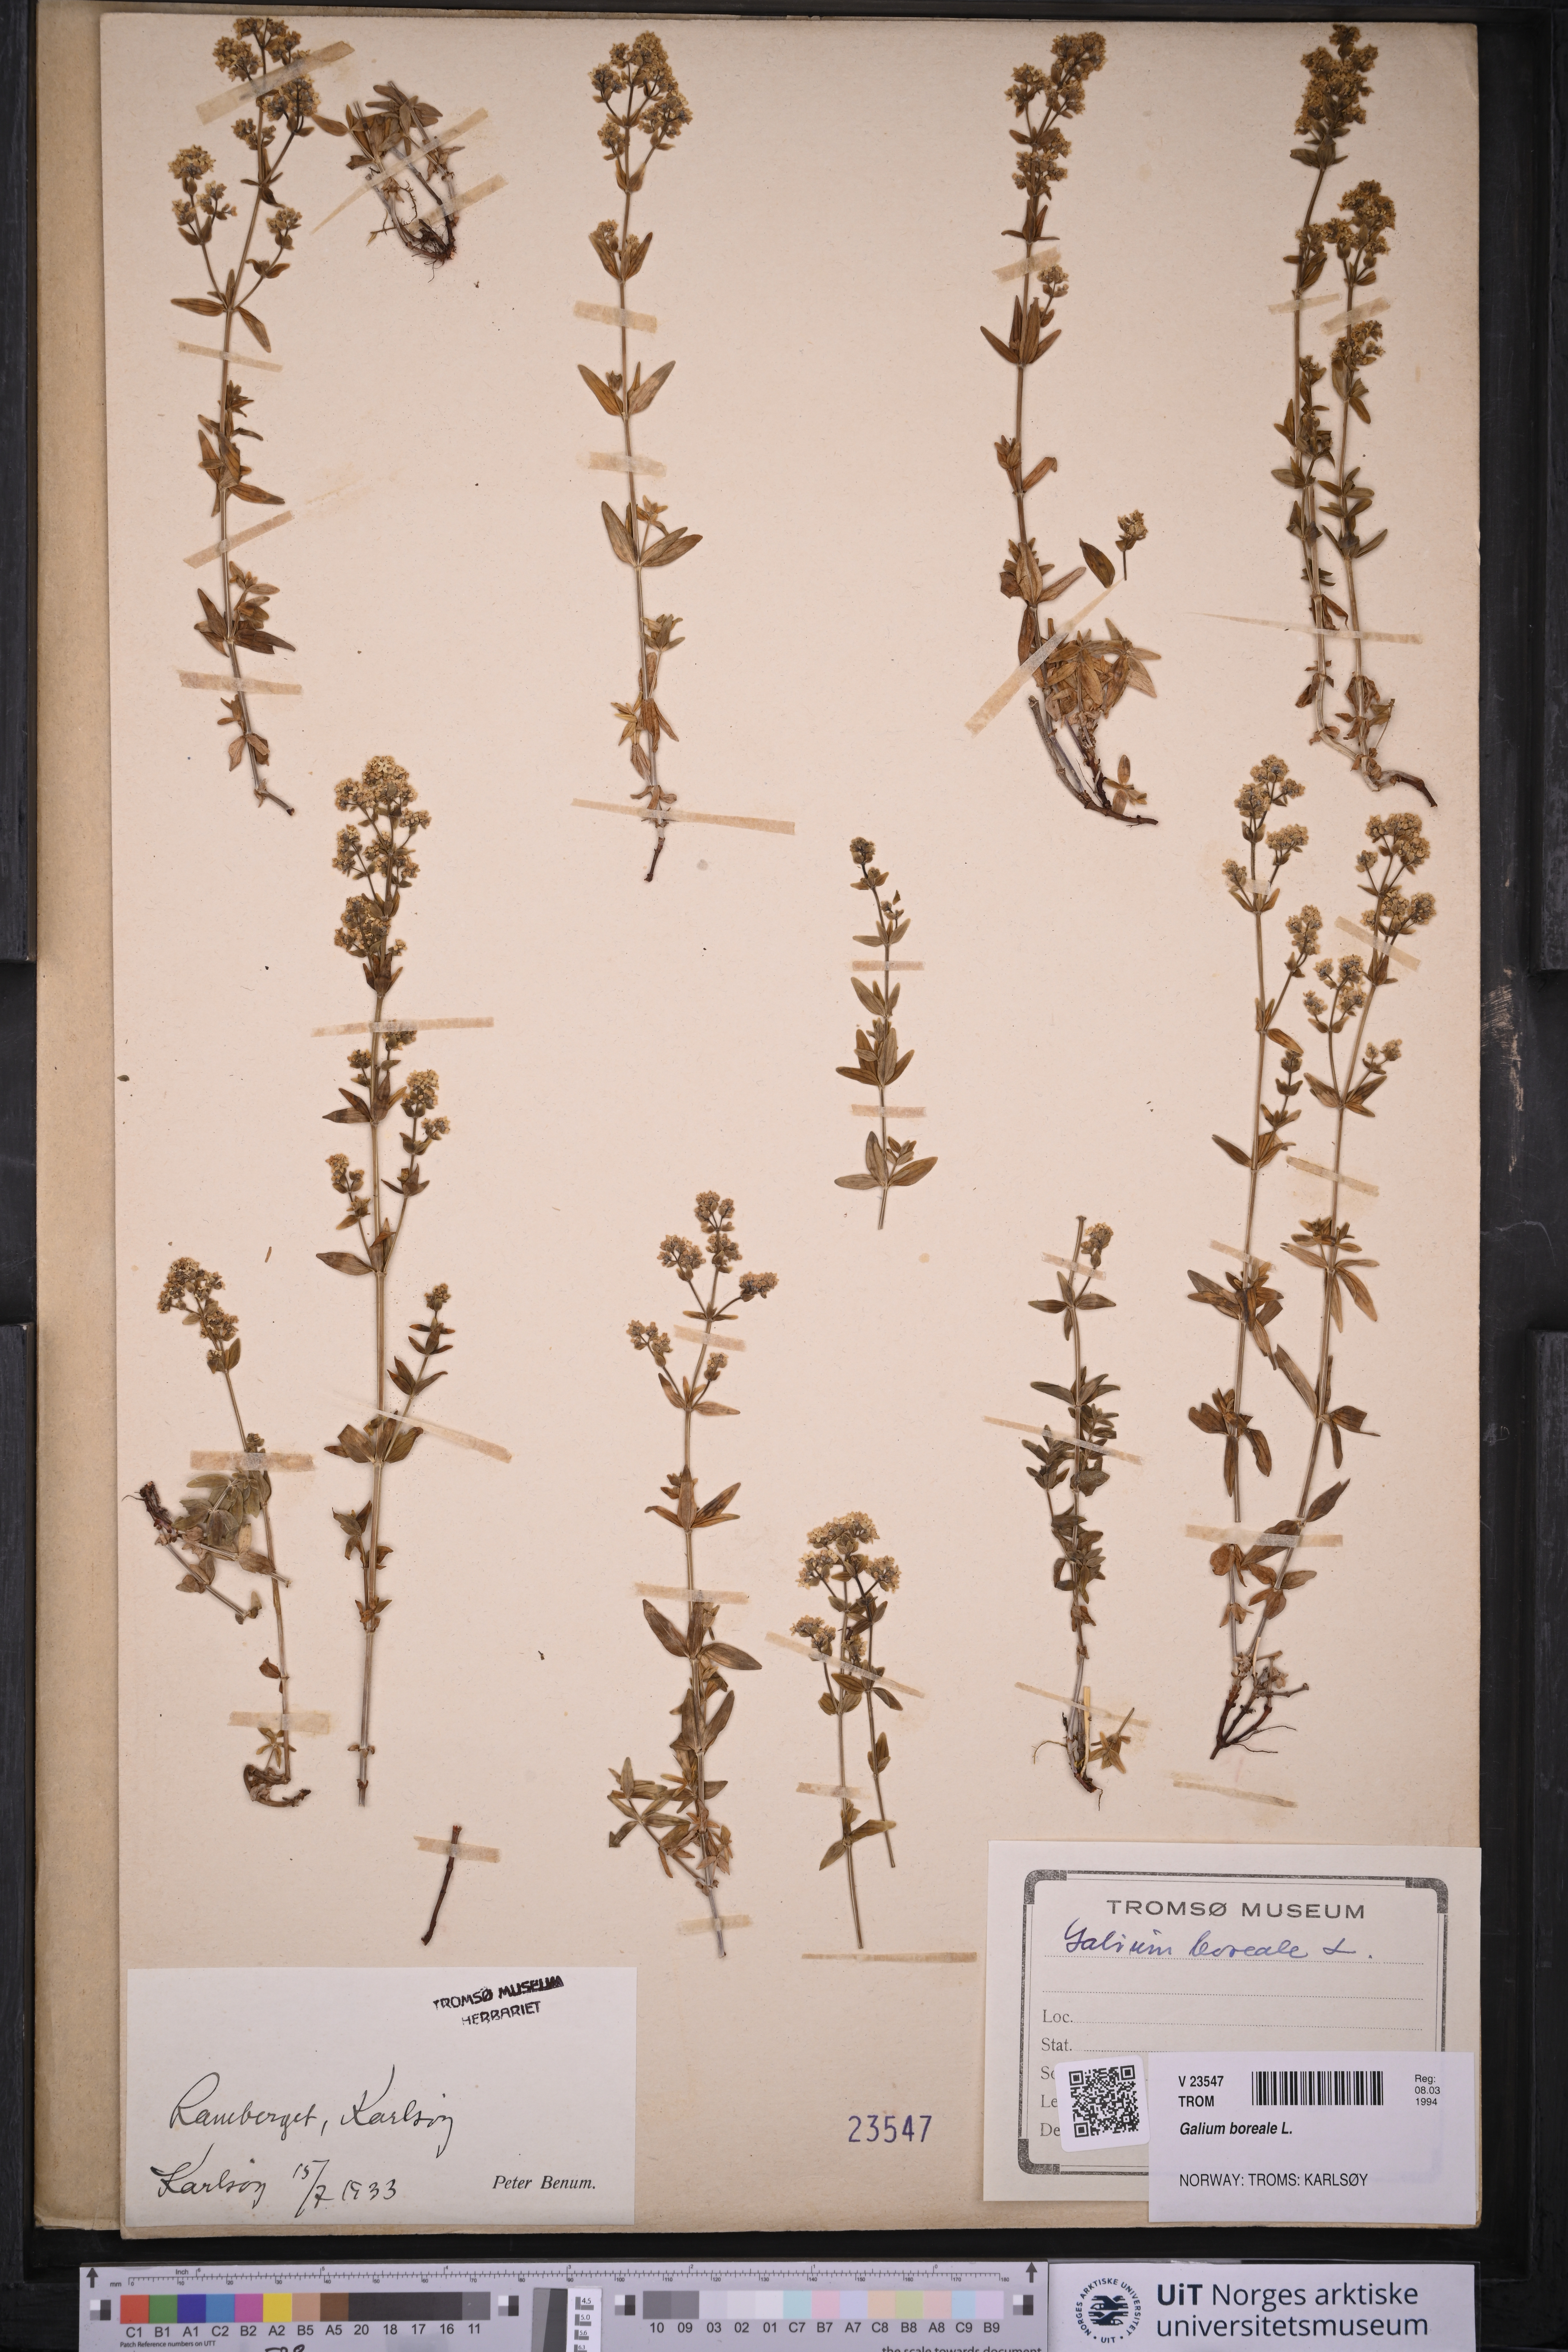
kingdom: Plantae
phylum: Tracheophyta
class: Magnoliopsida
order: Gentianales
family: Rubiaceae
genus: Galium
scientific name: Galium boreale
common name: Northern bedstraw
